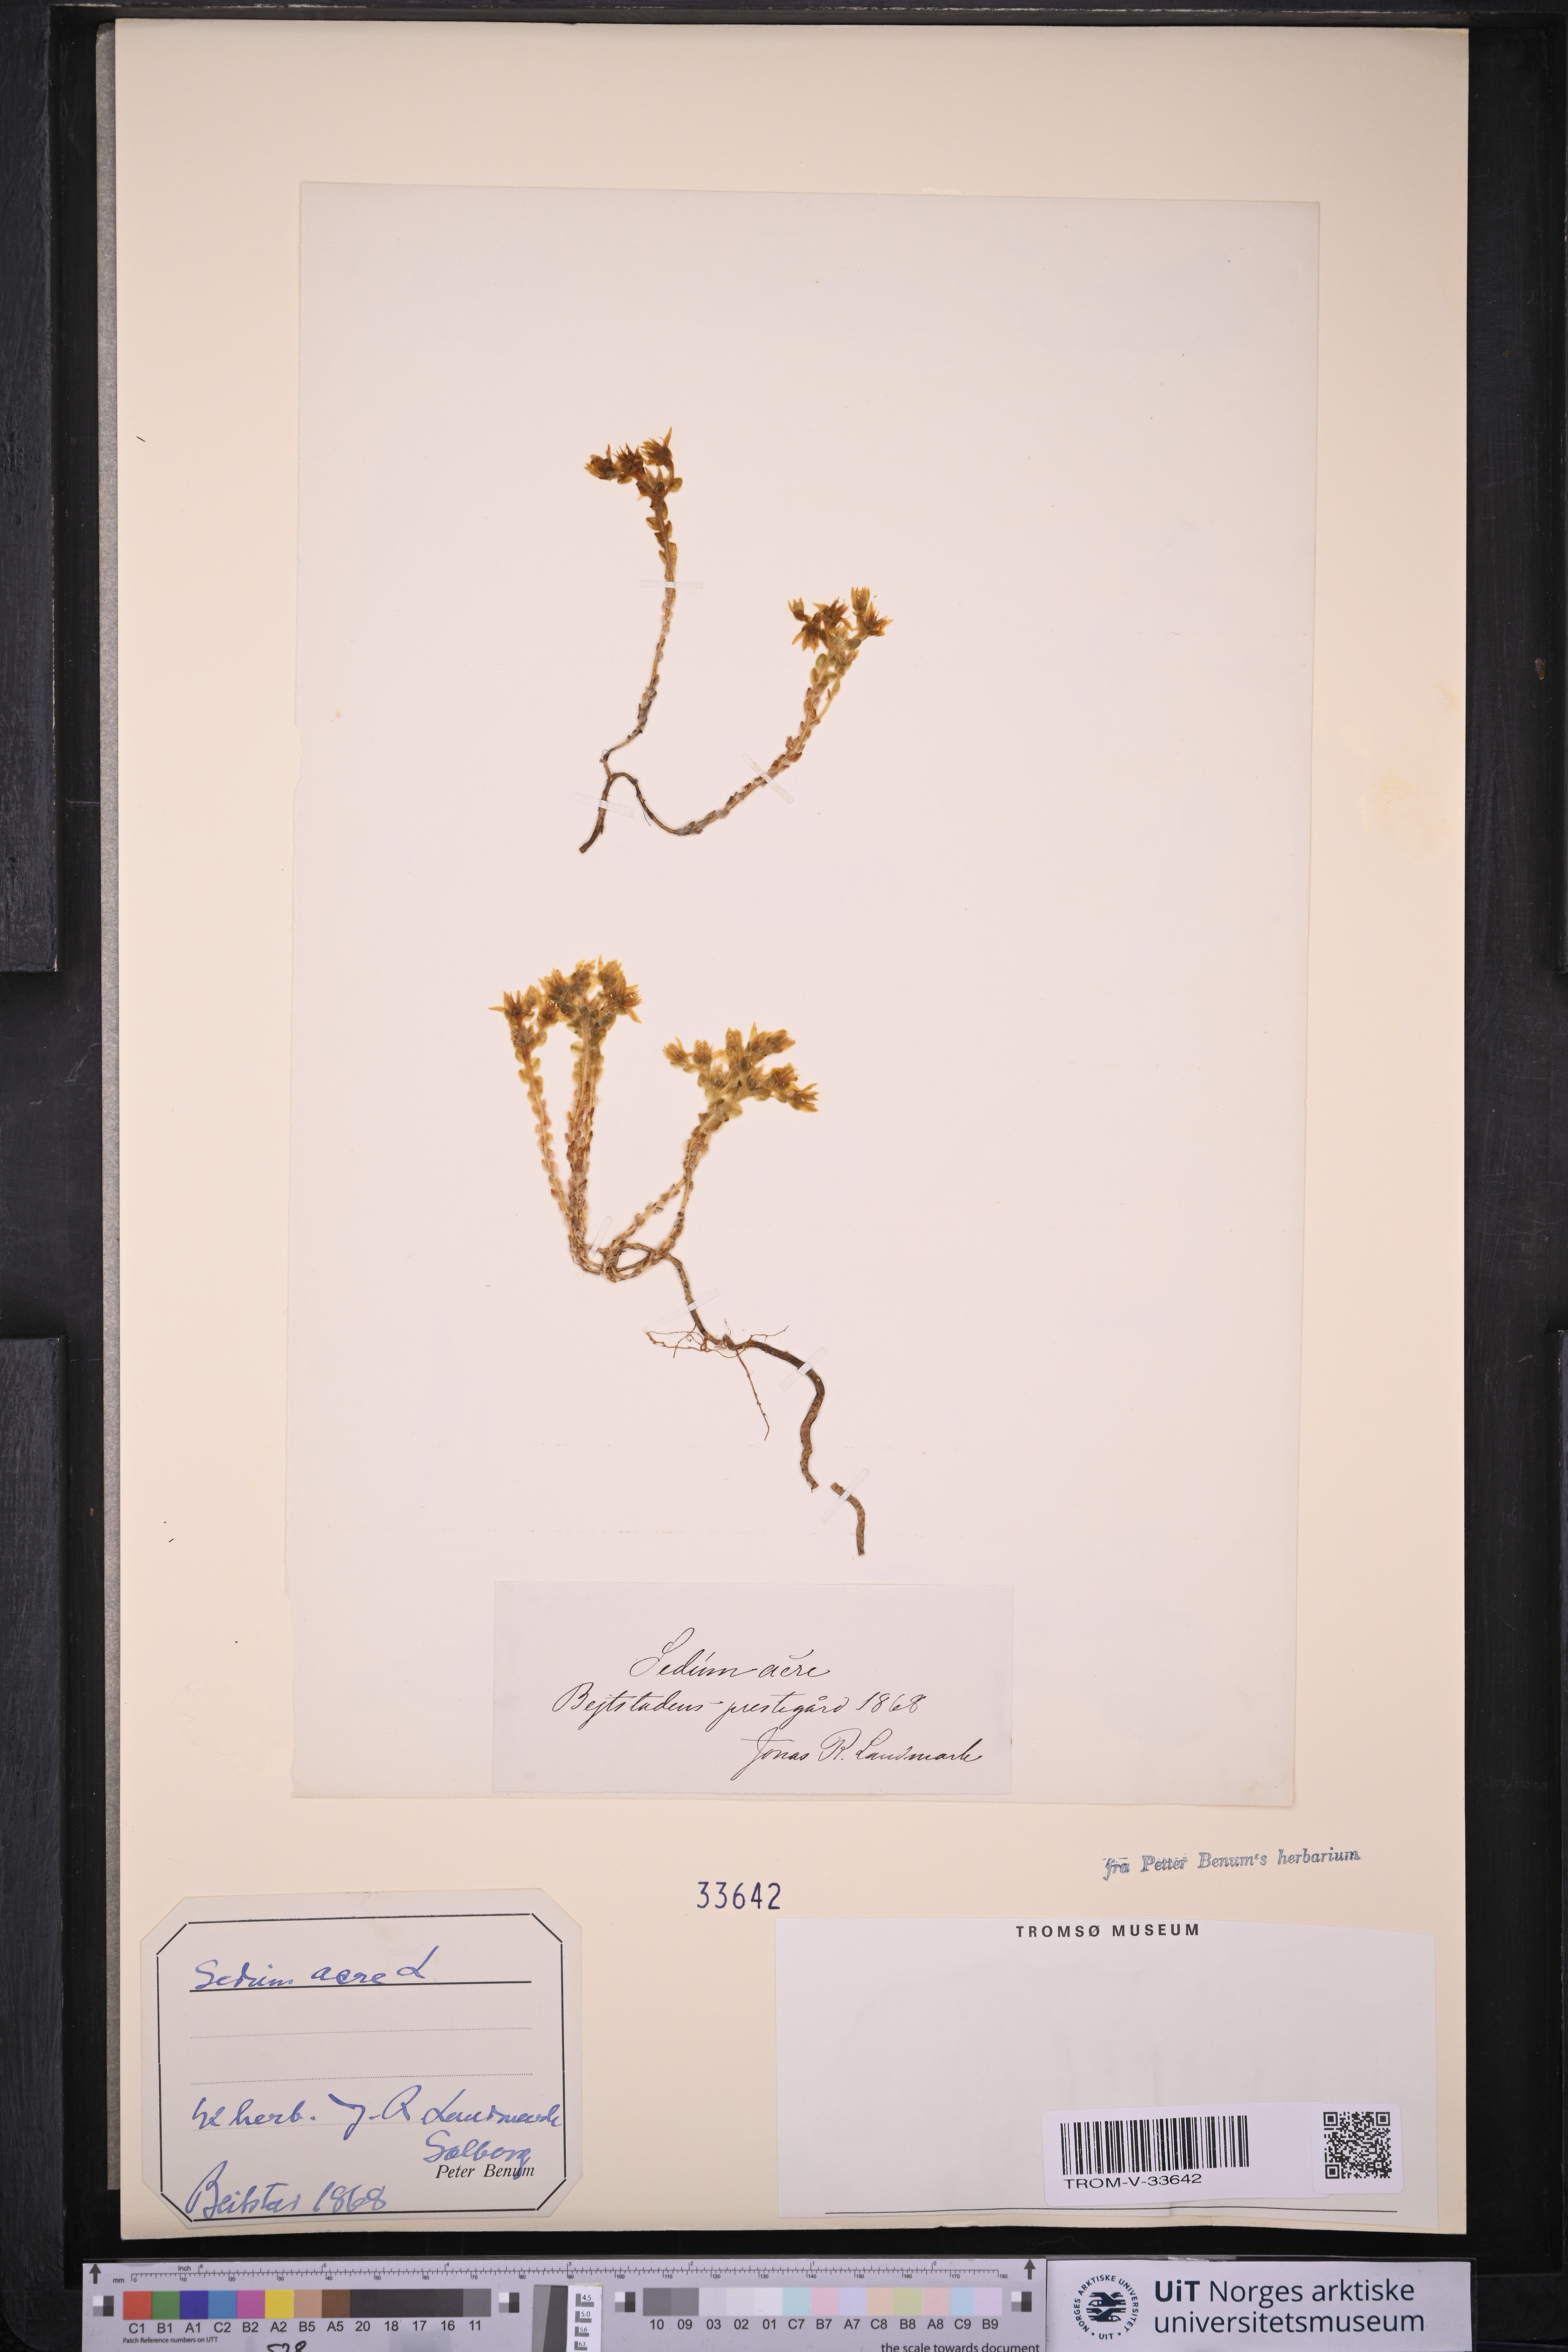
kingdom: Plantae
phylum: Tracheophyta
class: Magnoliopsida
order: Saxifragales
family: Crassulaceae
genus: Sedum
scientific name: Sedum acre
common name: Biting stonecrop
